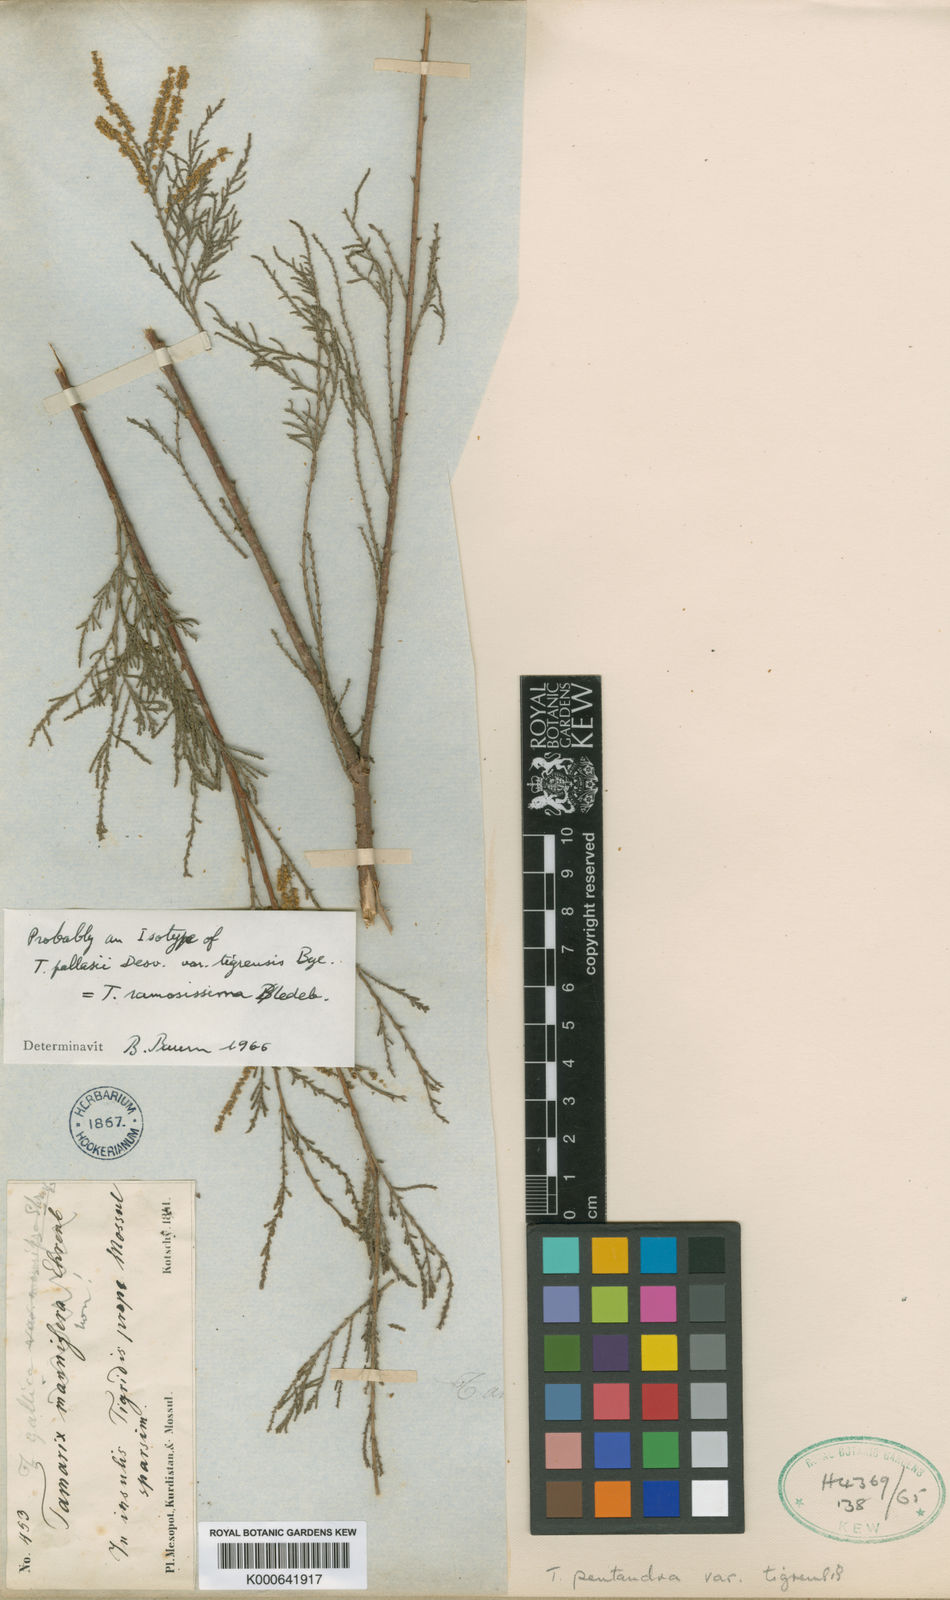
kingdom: Plantae
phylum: Tracheophyta
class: Magnoliopsida
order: Caryophyllales
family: Tamaricaceae
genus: Tamarix
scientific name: Tamarix ramosissima
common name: Pink tamarisk
